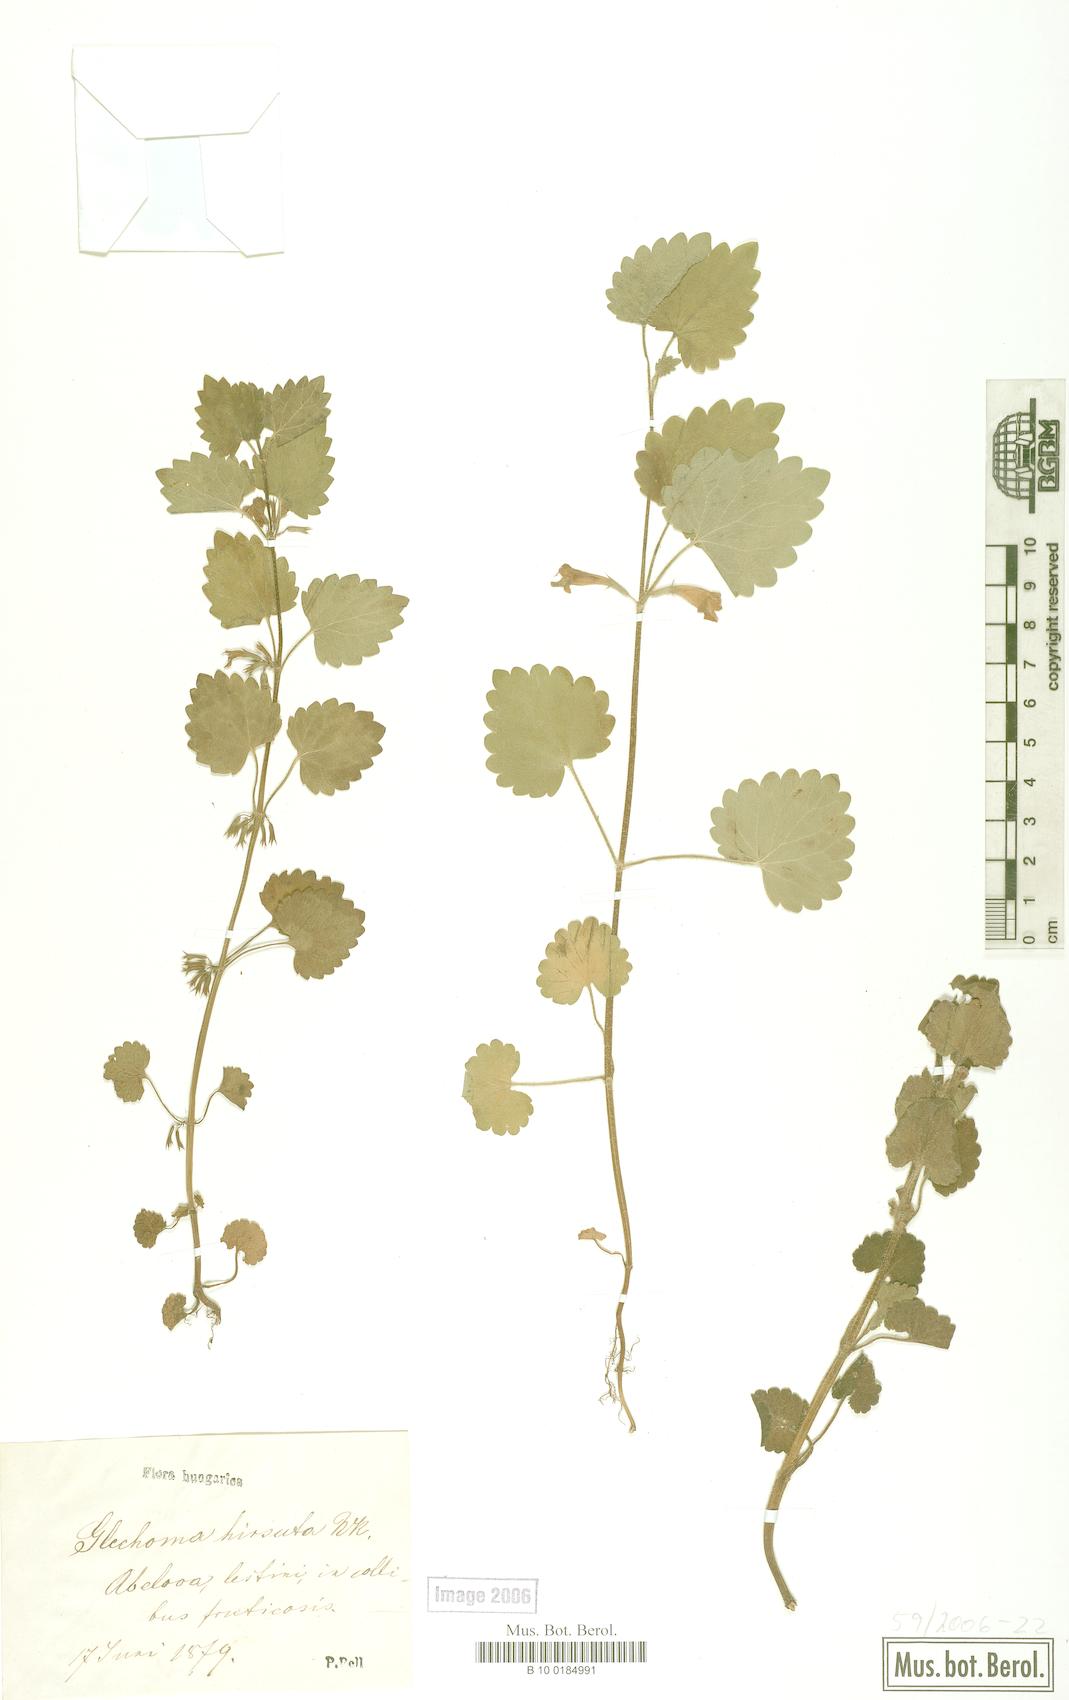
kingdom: Plantae
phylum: Tracheophyta
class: Magnoliopsida
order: Lamiales
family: Lamiaceae
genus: Glechoma
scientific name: Glechoma hirsuta
